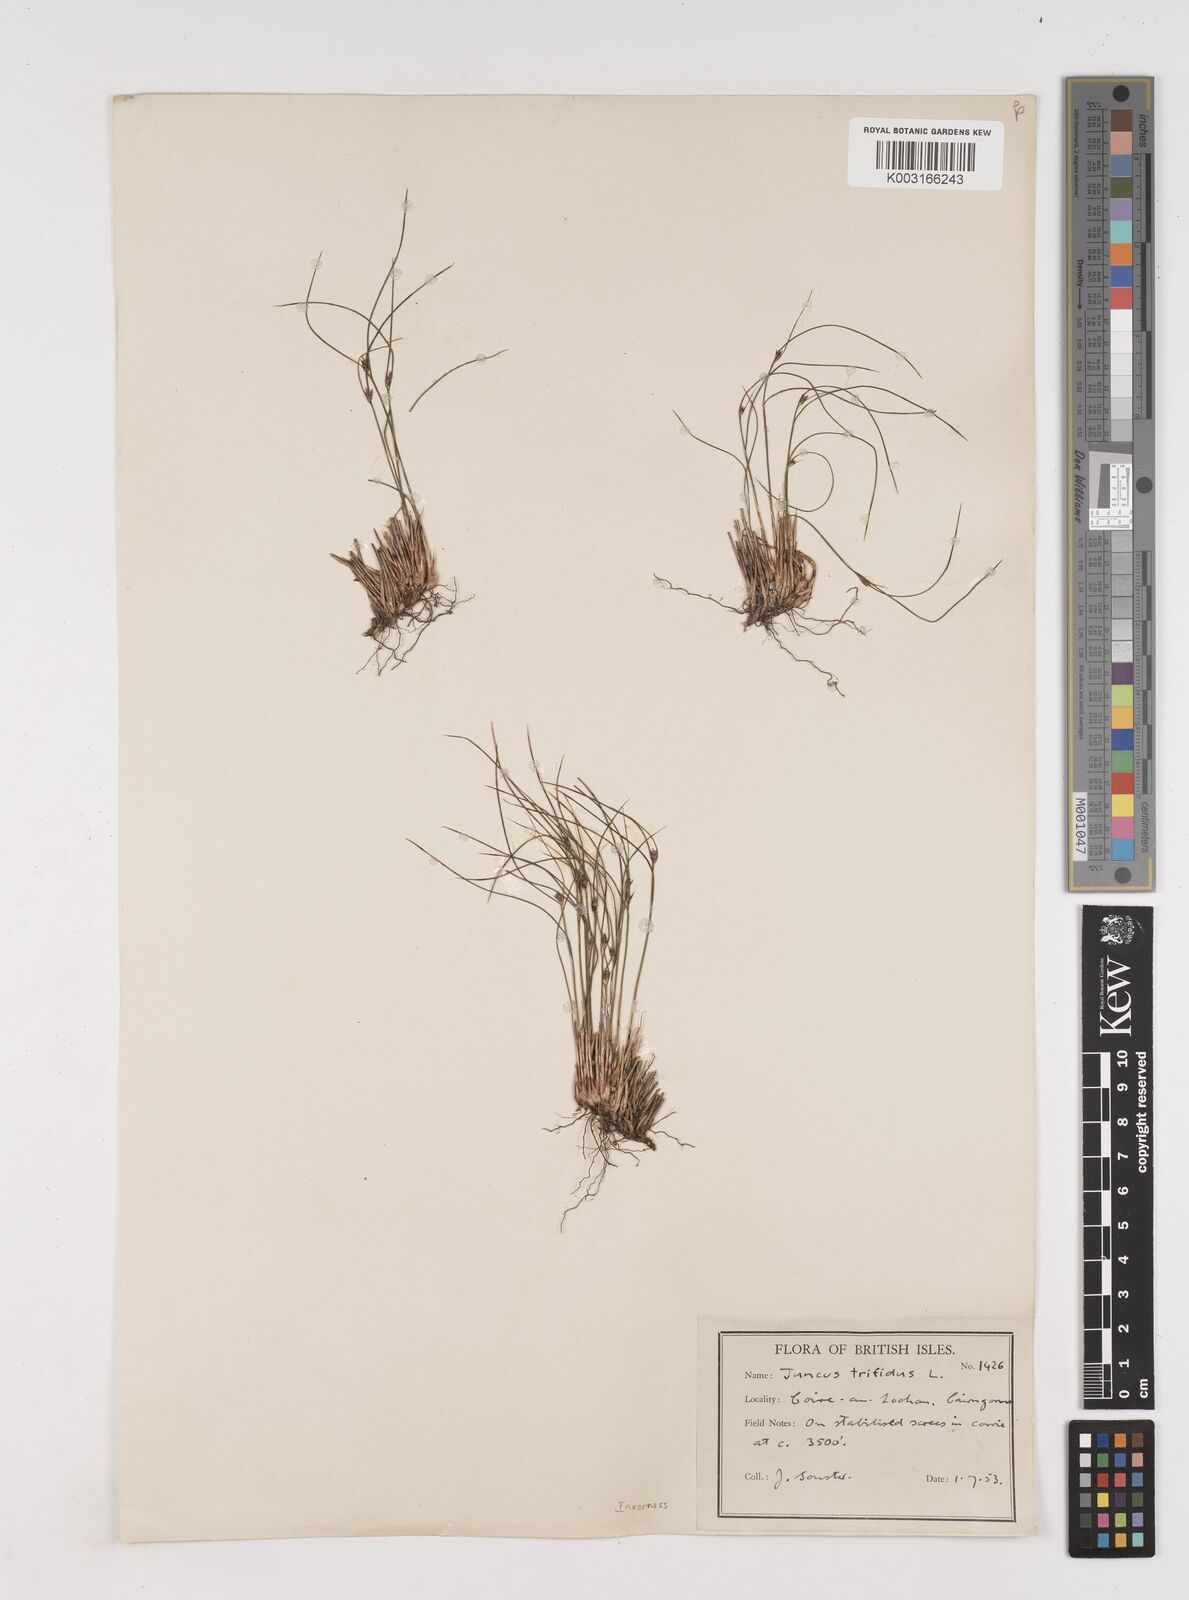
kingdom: Plantae
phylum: Tracheophyta
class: Liliopsida
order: Poales
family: Juncaceae
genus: Oreojuncus
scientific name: Oreojuncus trifidus
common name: Highland rush
